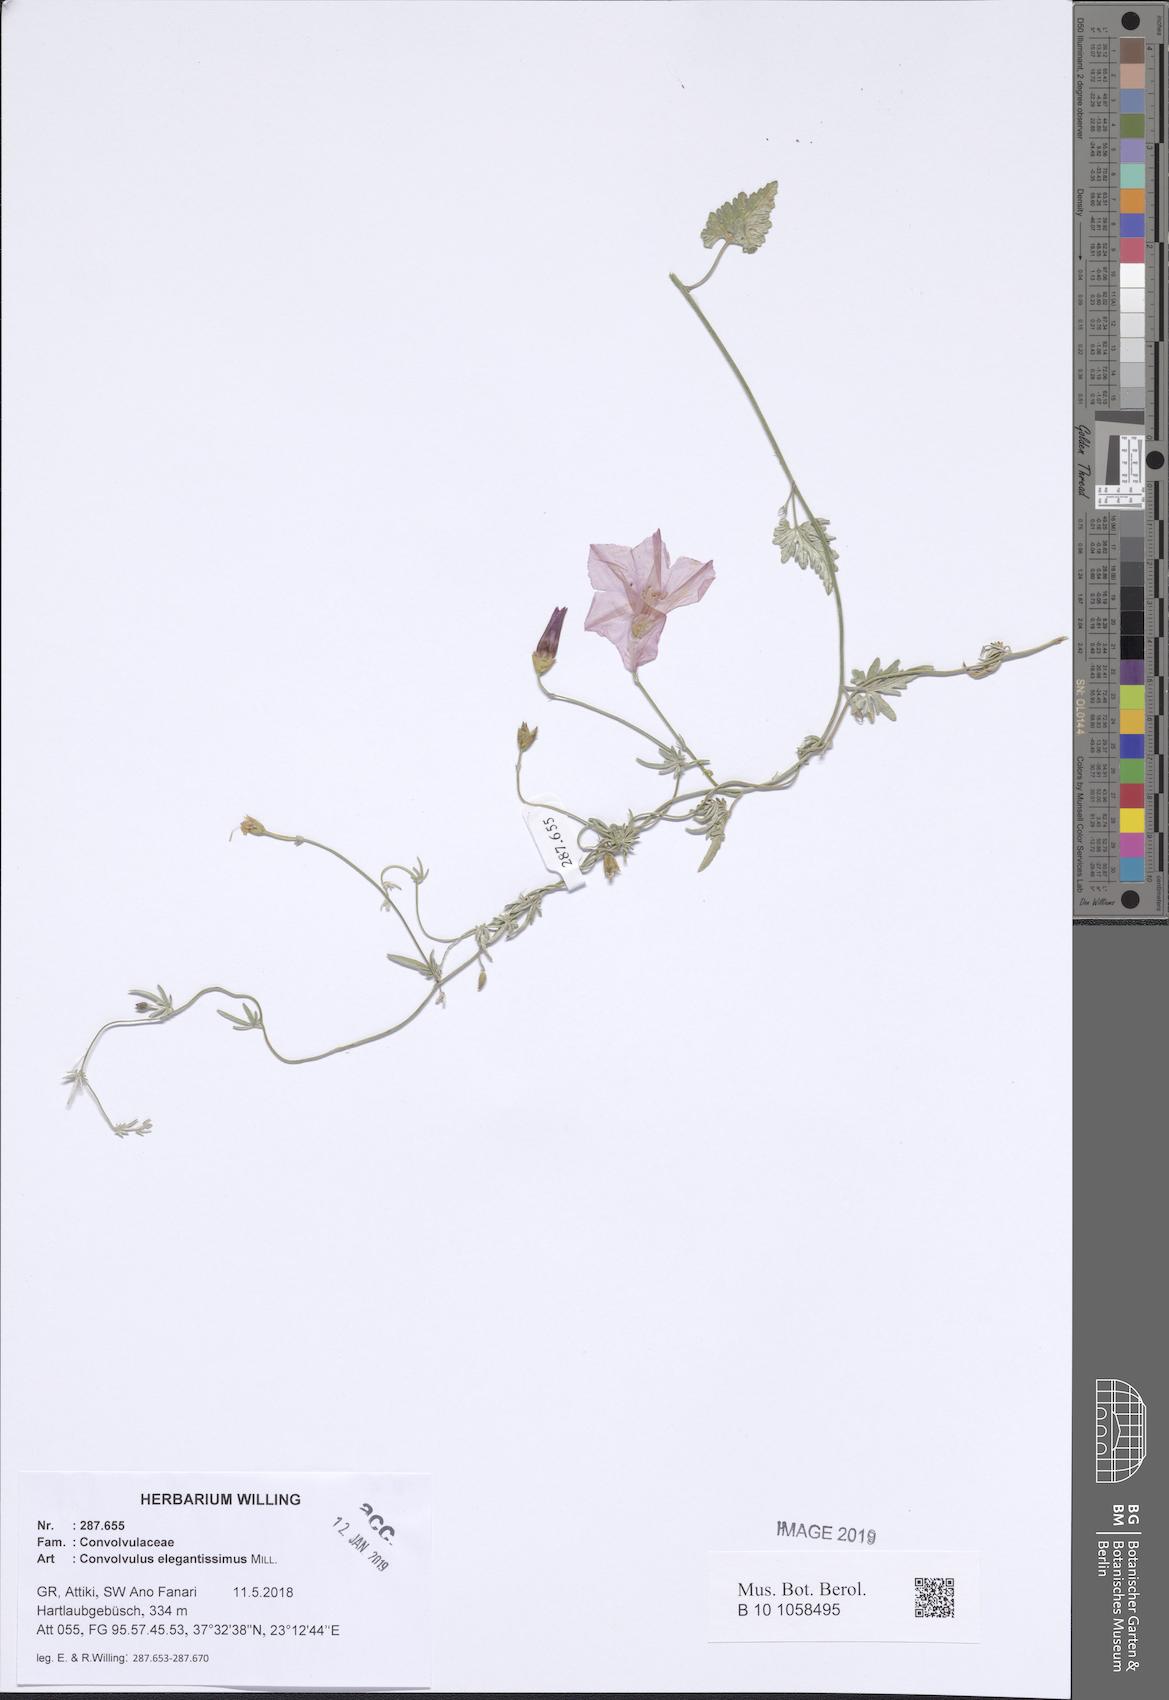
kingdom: Plantae
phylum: Tracheophyta
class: Magnoliopsida
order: Solanales
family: Convolvulaceae
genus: Convolvulus
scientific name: Convolvulus elegantissimus
